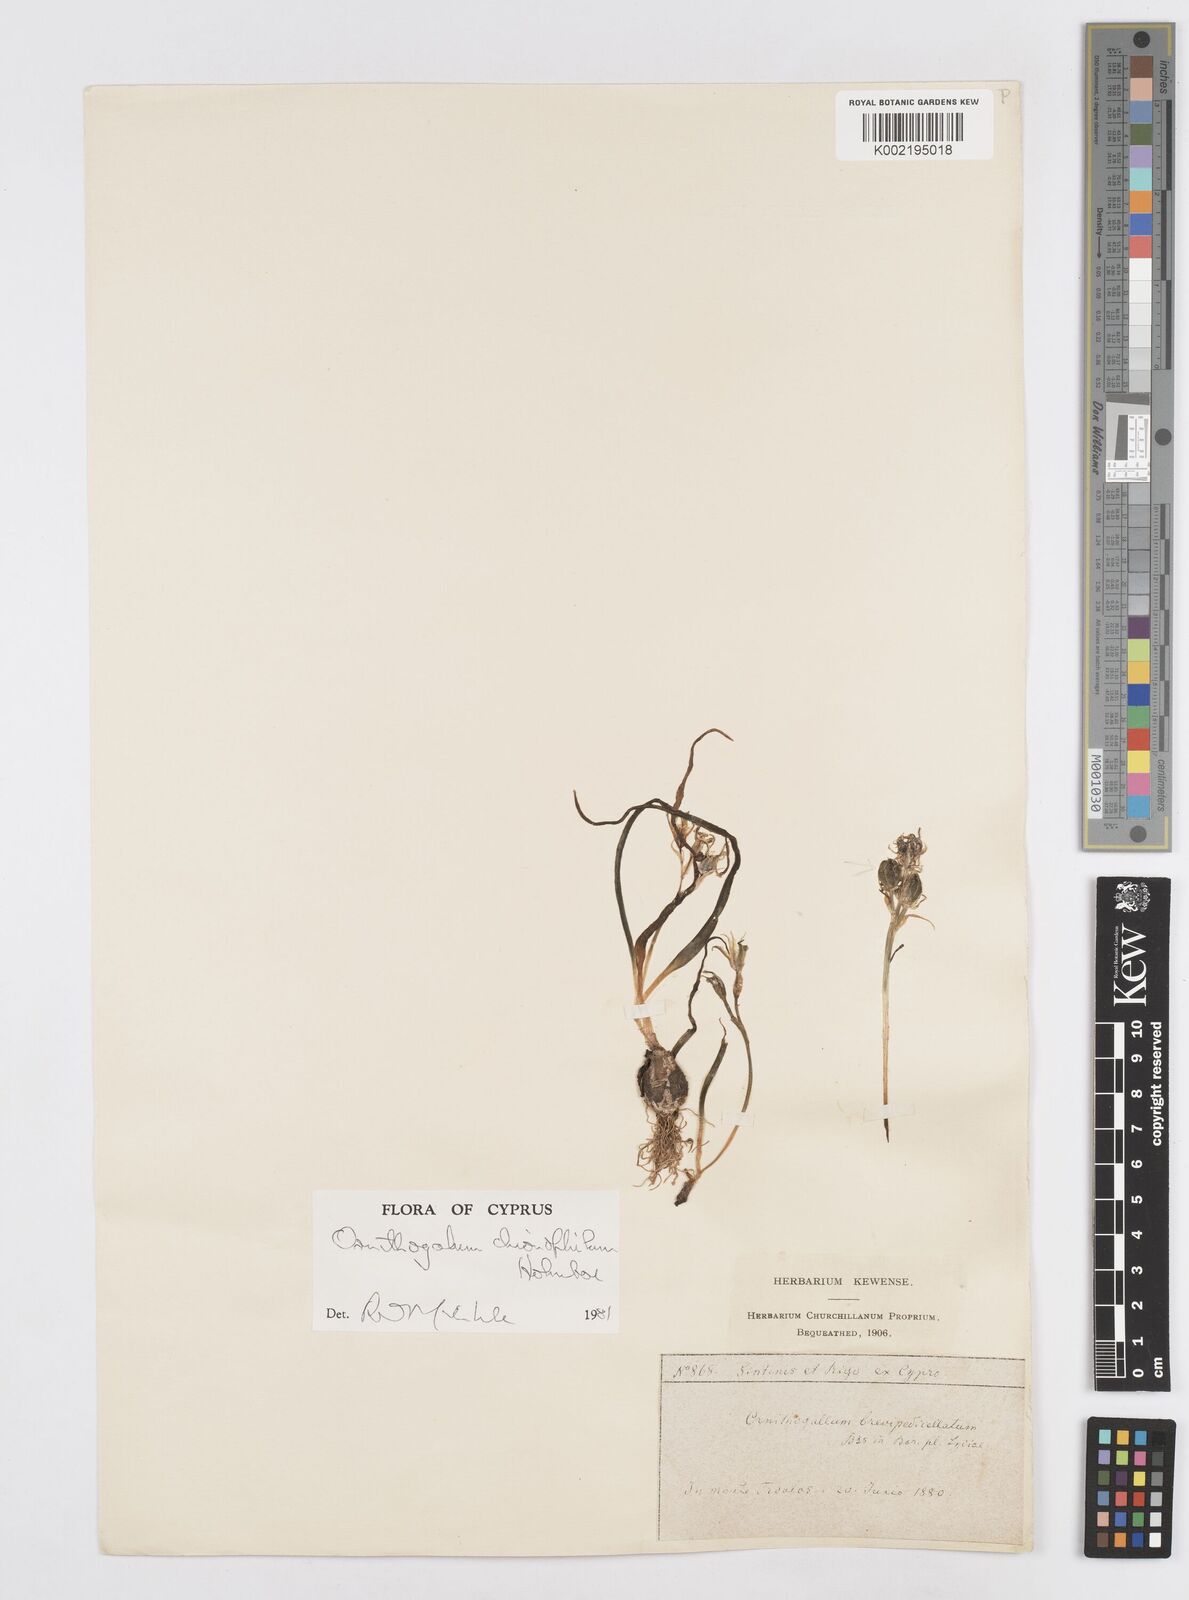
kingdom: Plantae
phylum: Tracheophyta
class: Liliopsida
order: Asparagales
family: Asparagaceae
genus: Ornithogalum
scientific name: Ornithogalum chionophilum
